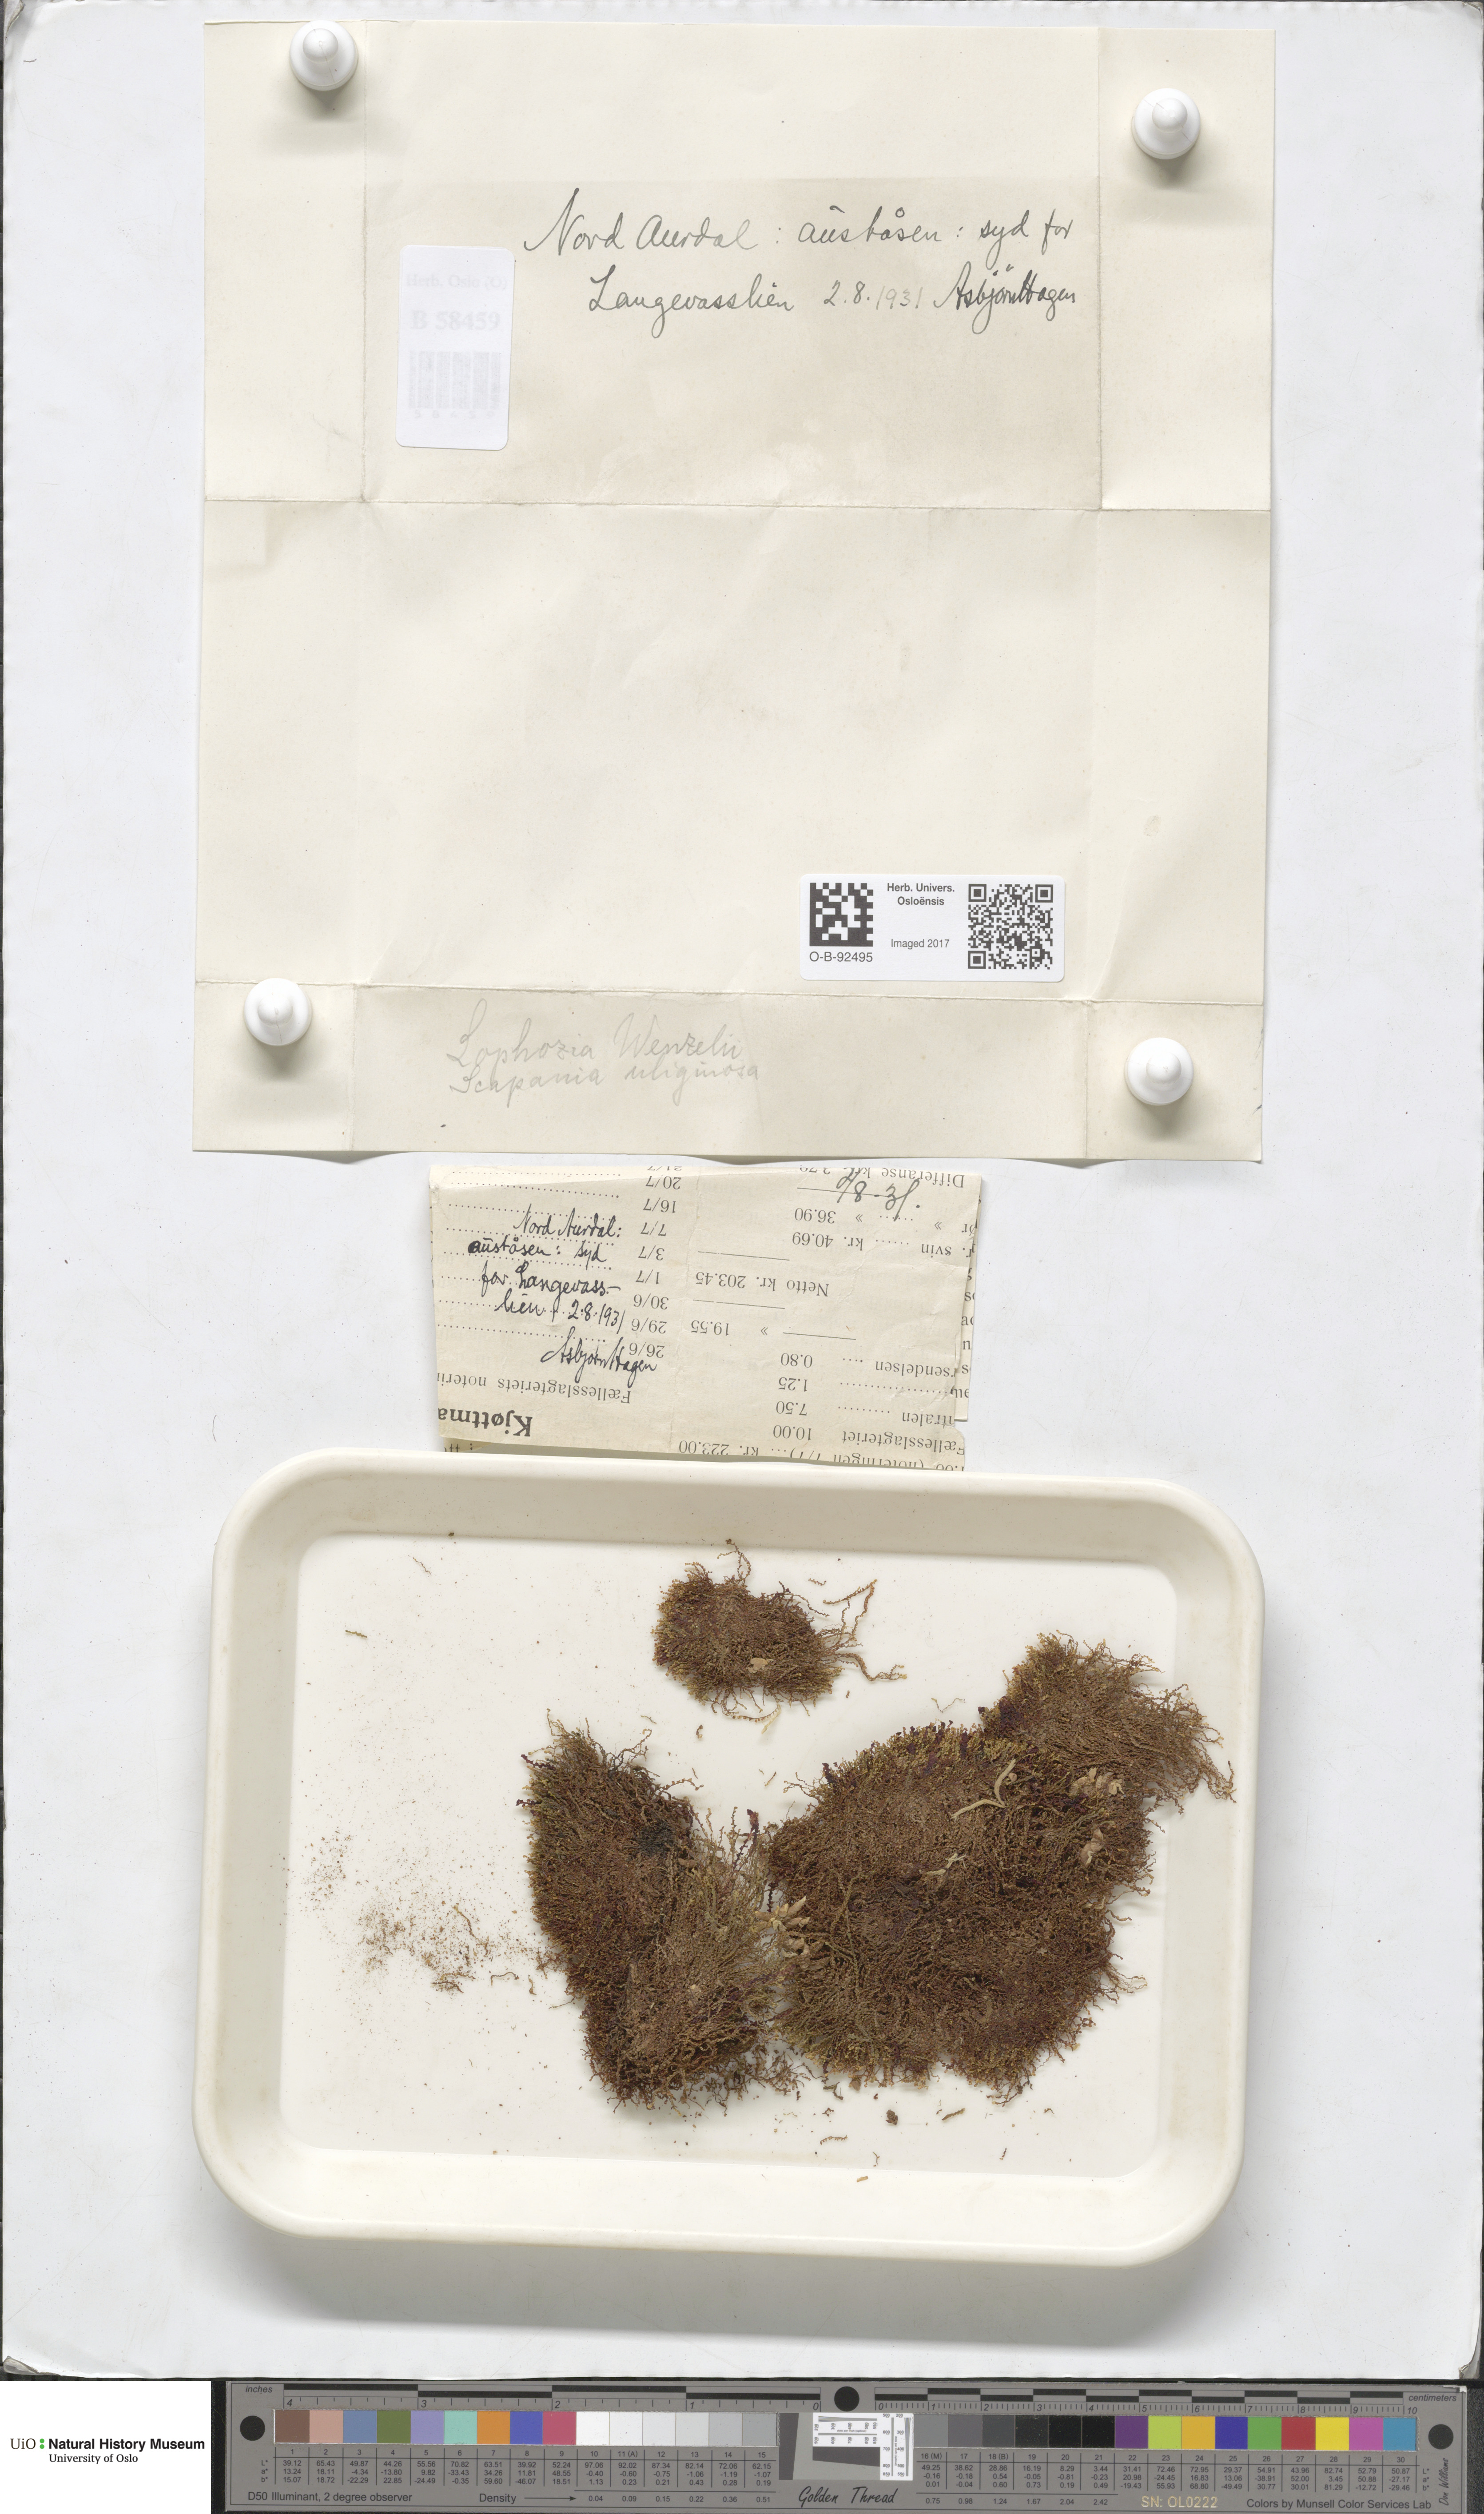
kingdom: Plantae
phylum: Marchantiophyta
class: Jungermanniopsida
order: Jungermanniales
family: Lophoziaceae
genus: Lophozia
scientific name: Lophozia wenzelii
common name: Wenzel s notchwort
